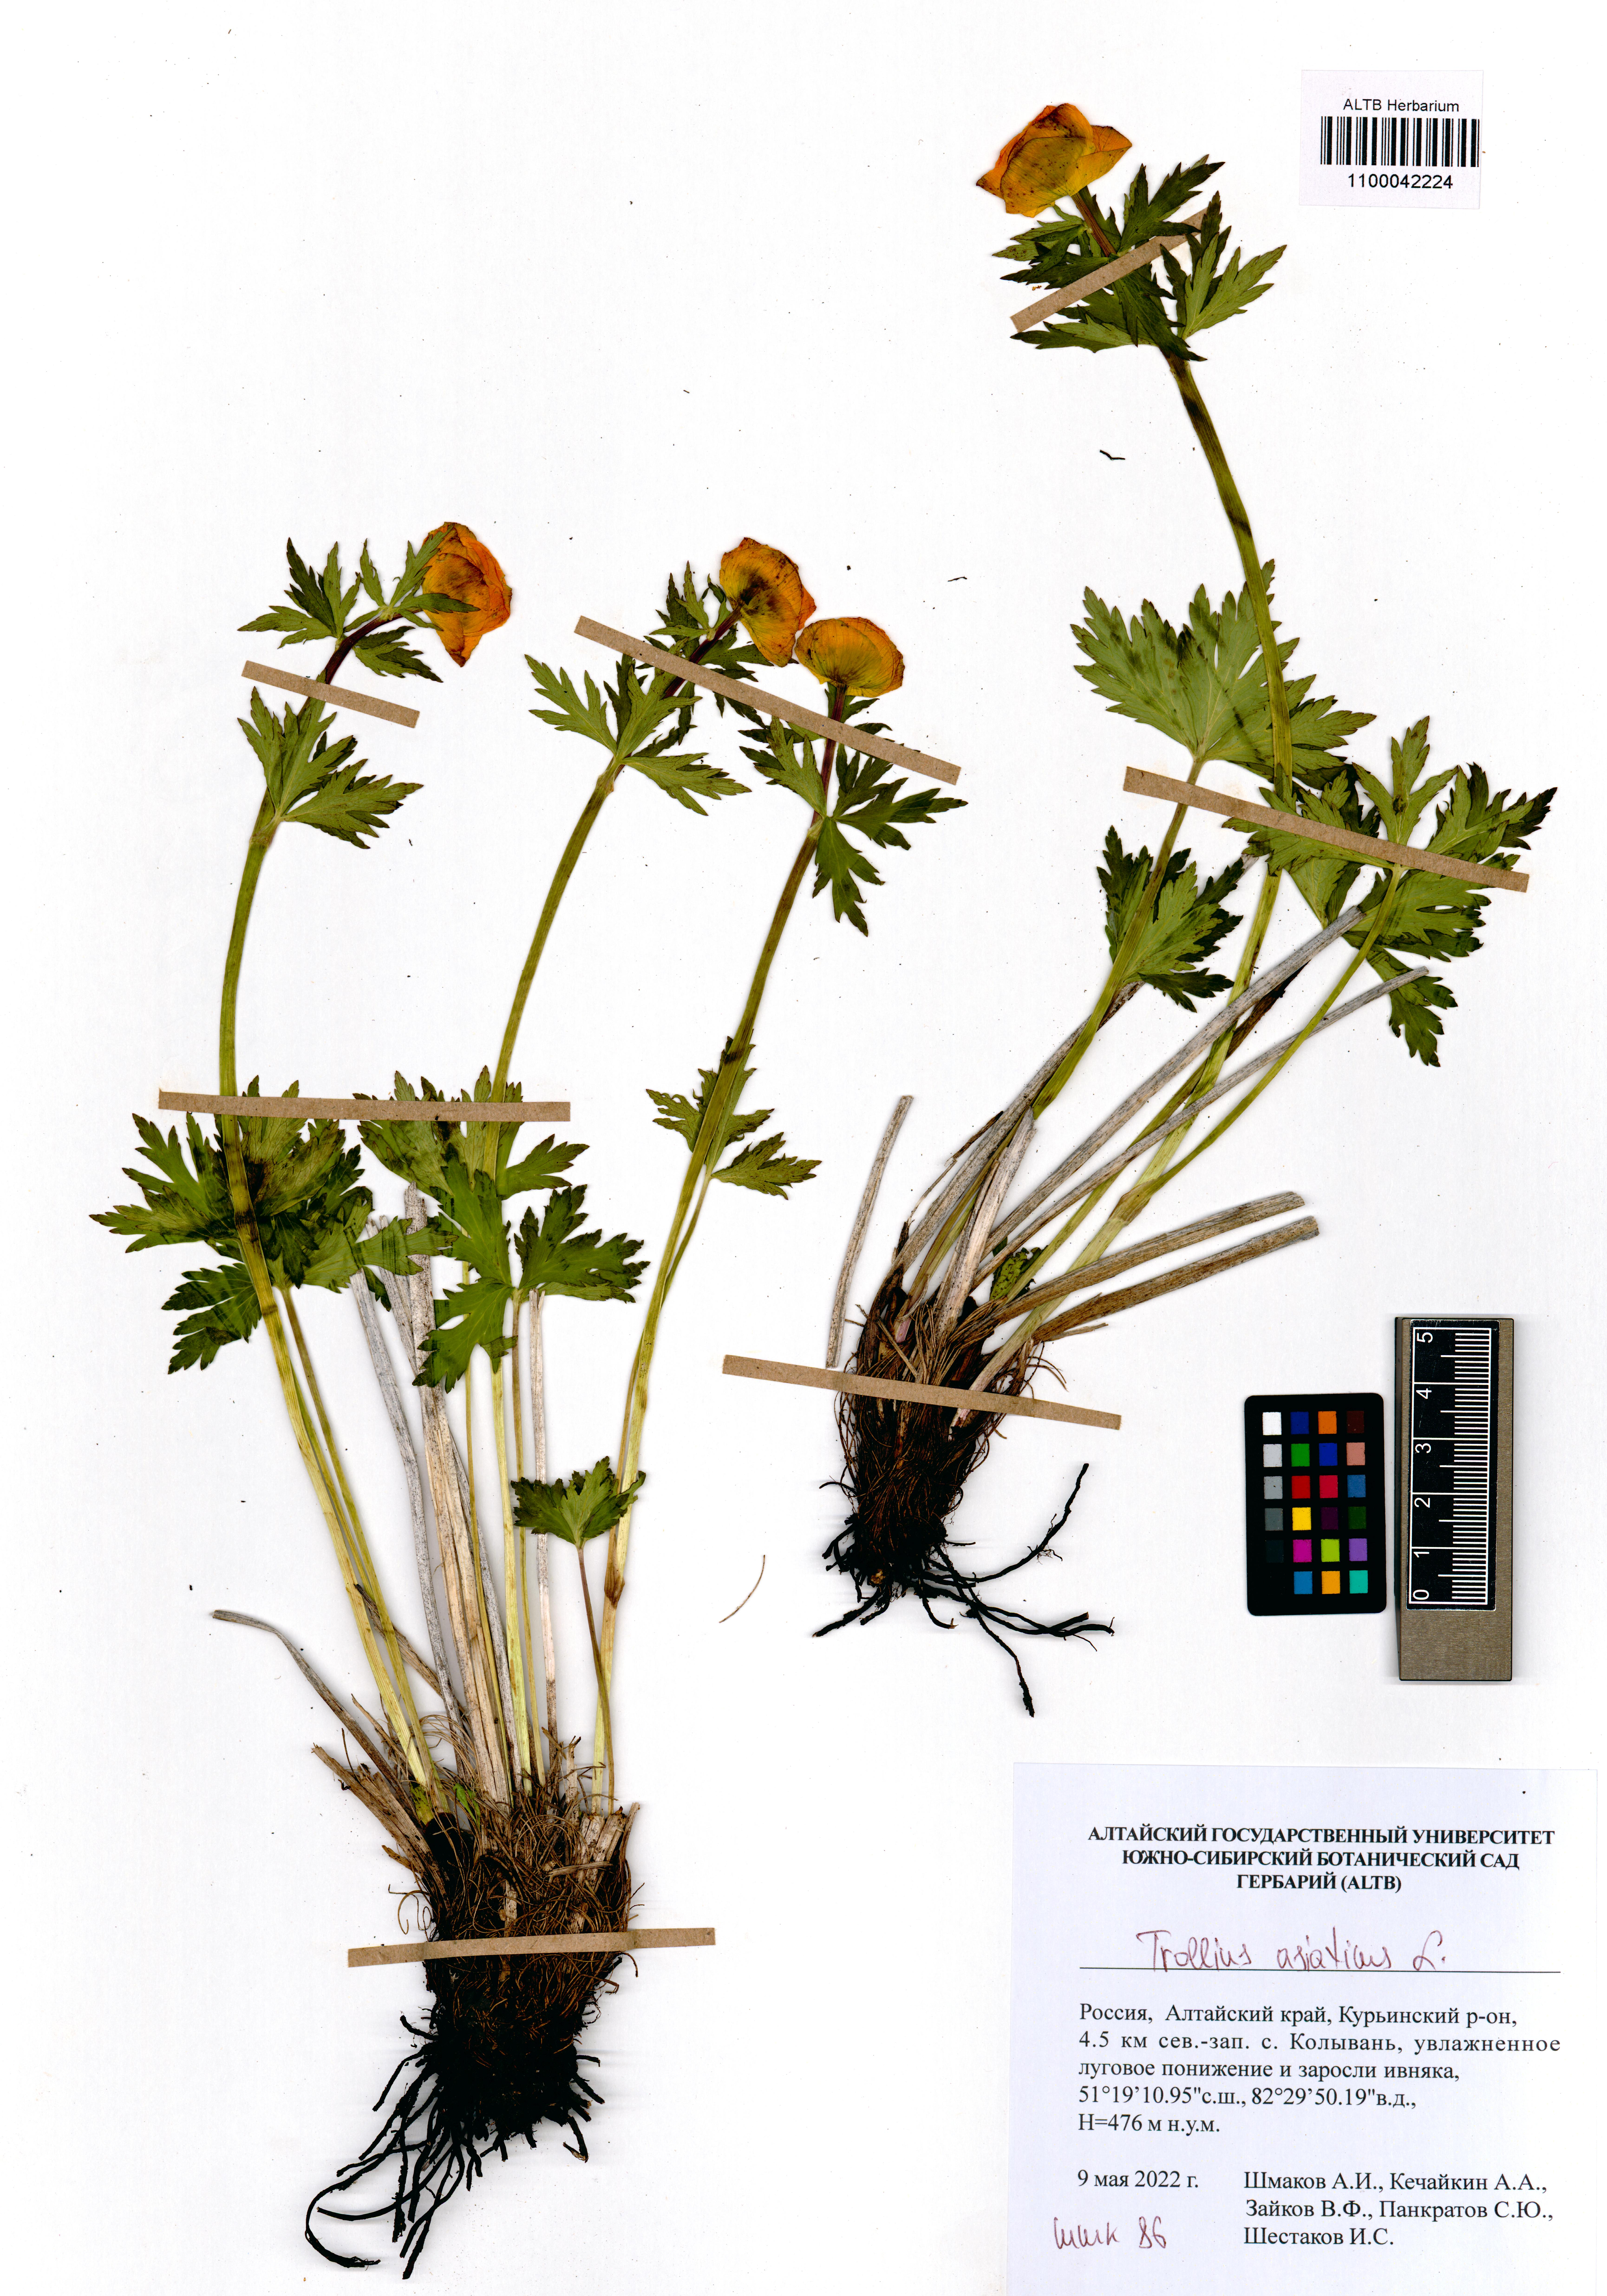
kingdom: Plantae
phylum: Tracheophyta
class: Magnoliopsida
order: Ranunculales
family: Ranunculaceae
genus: Trollius
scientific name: Trollius asiaticus
